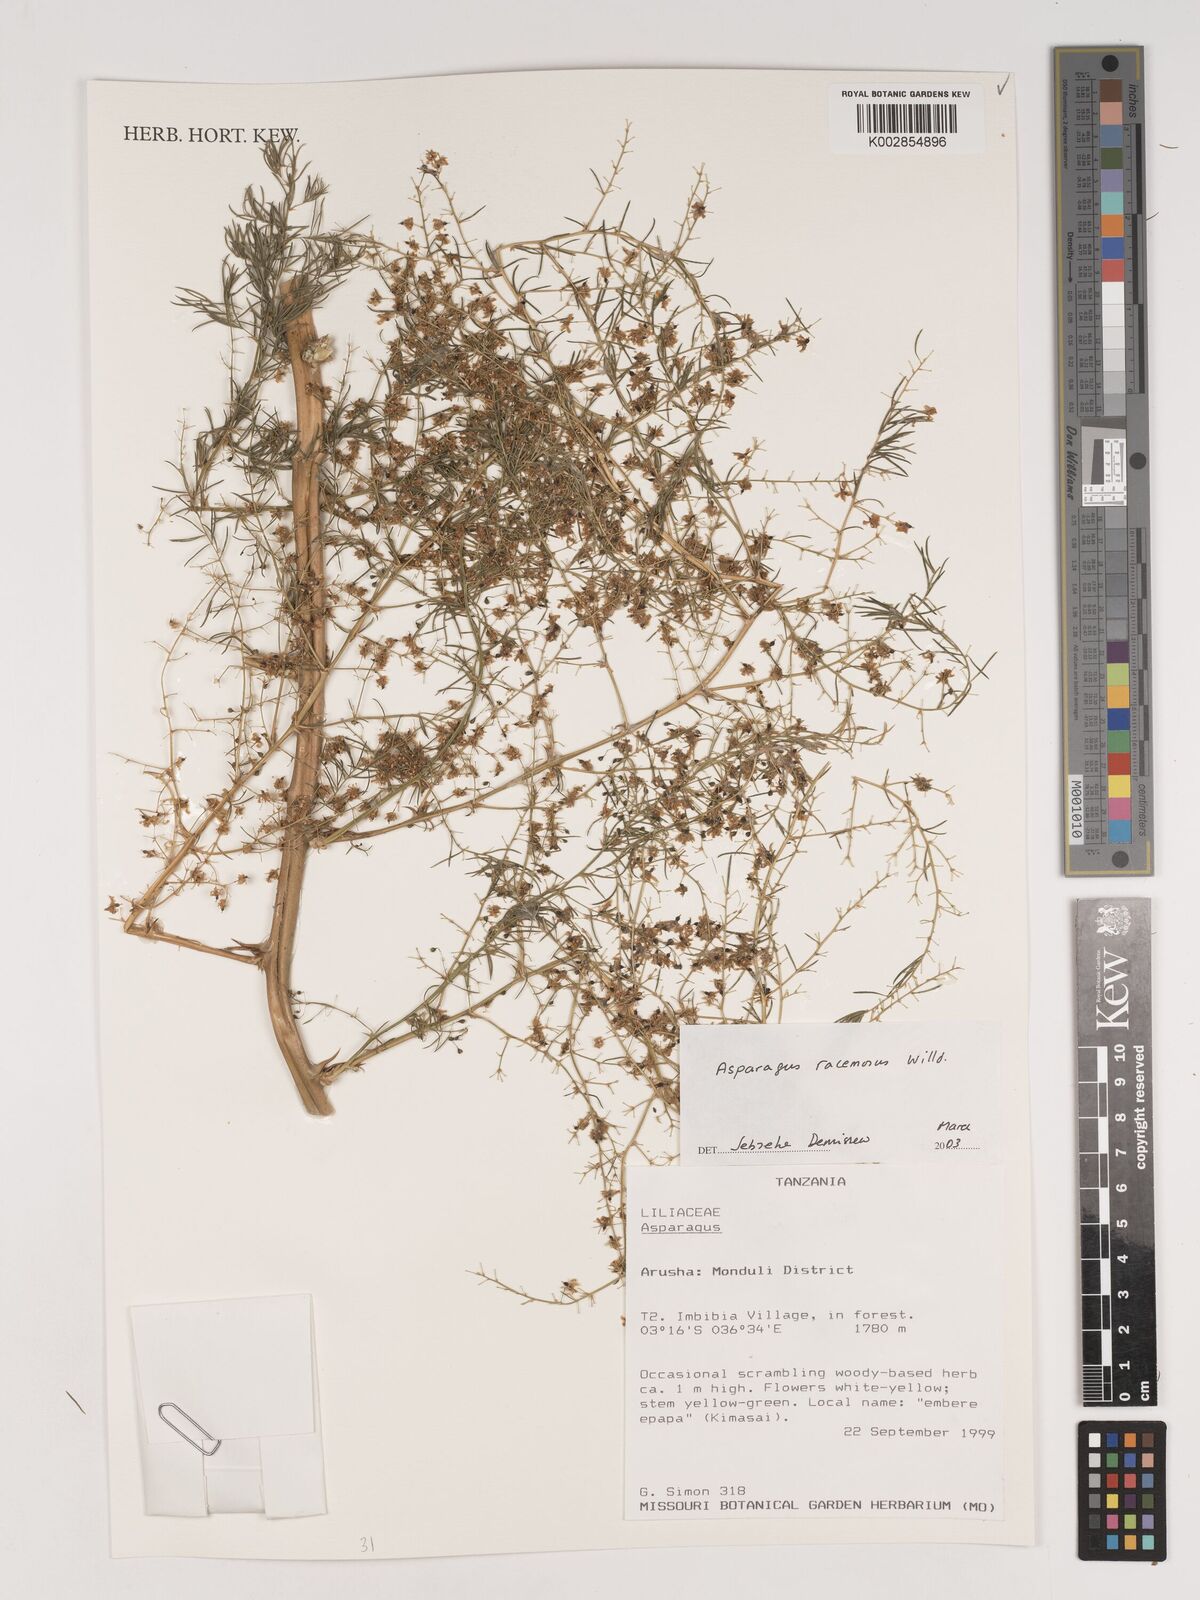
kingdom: Plantae
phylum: Tracheophyta
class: Liliopsida
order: Asparagales
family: Asparagaceae
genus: Asparagus
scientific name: Asparagus racemosus
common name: Asparagus-fern
